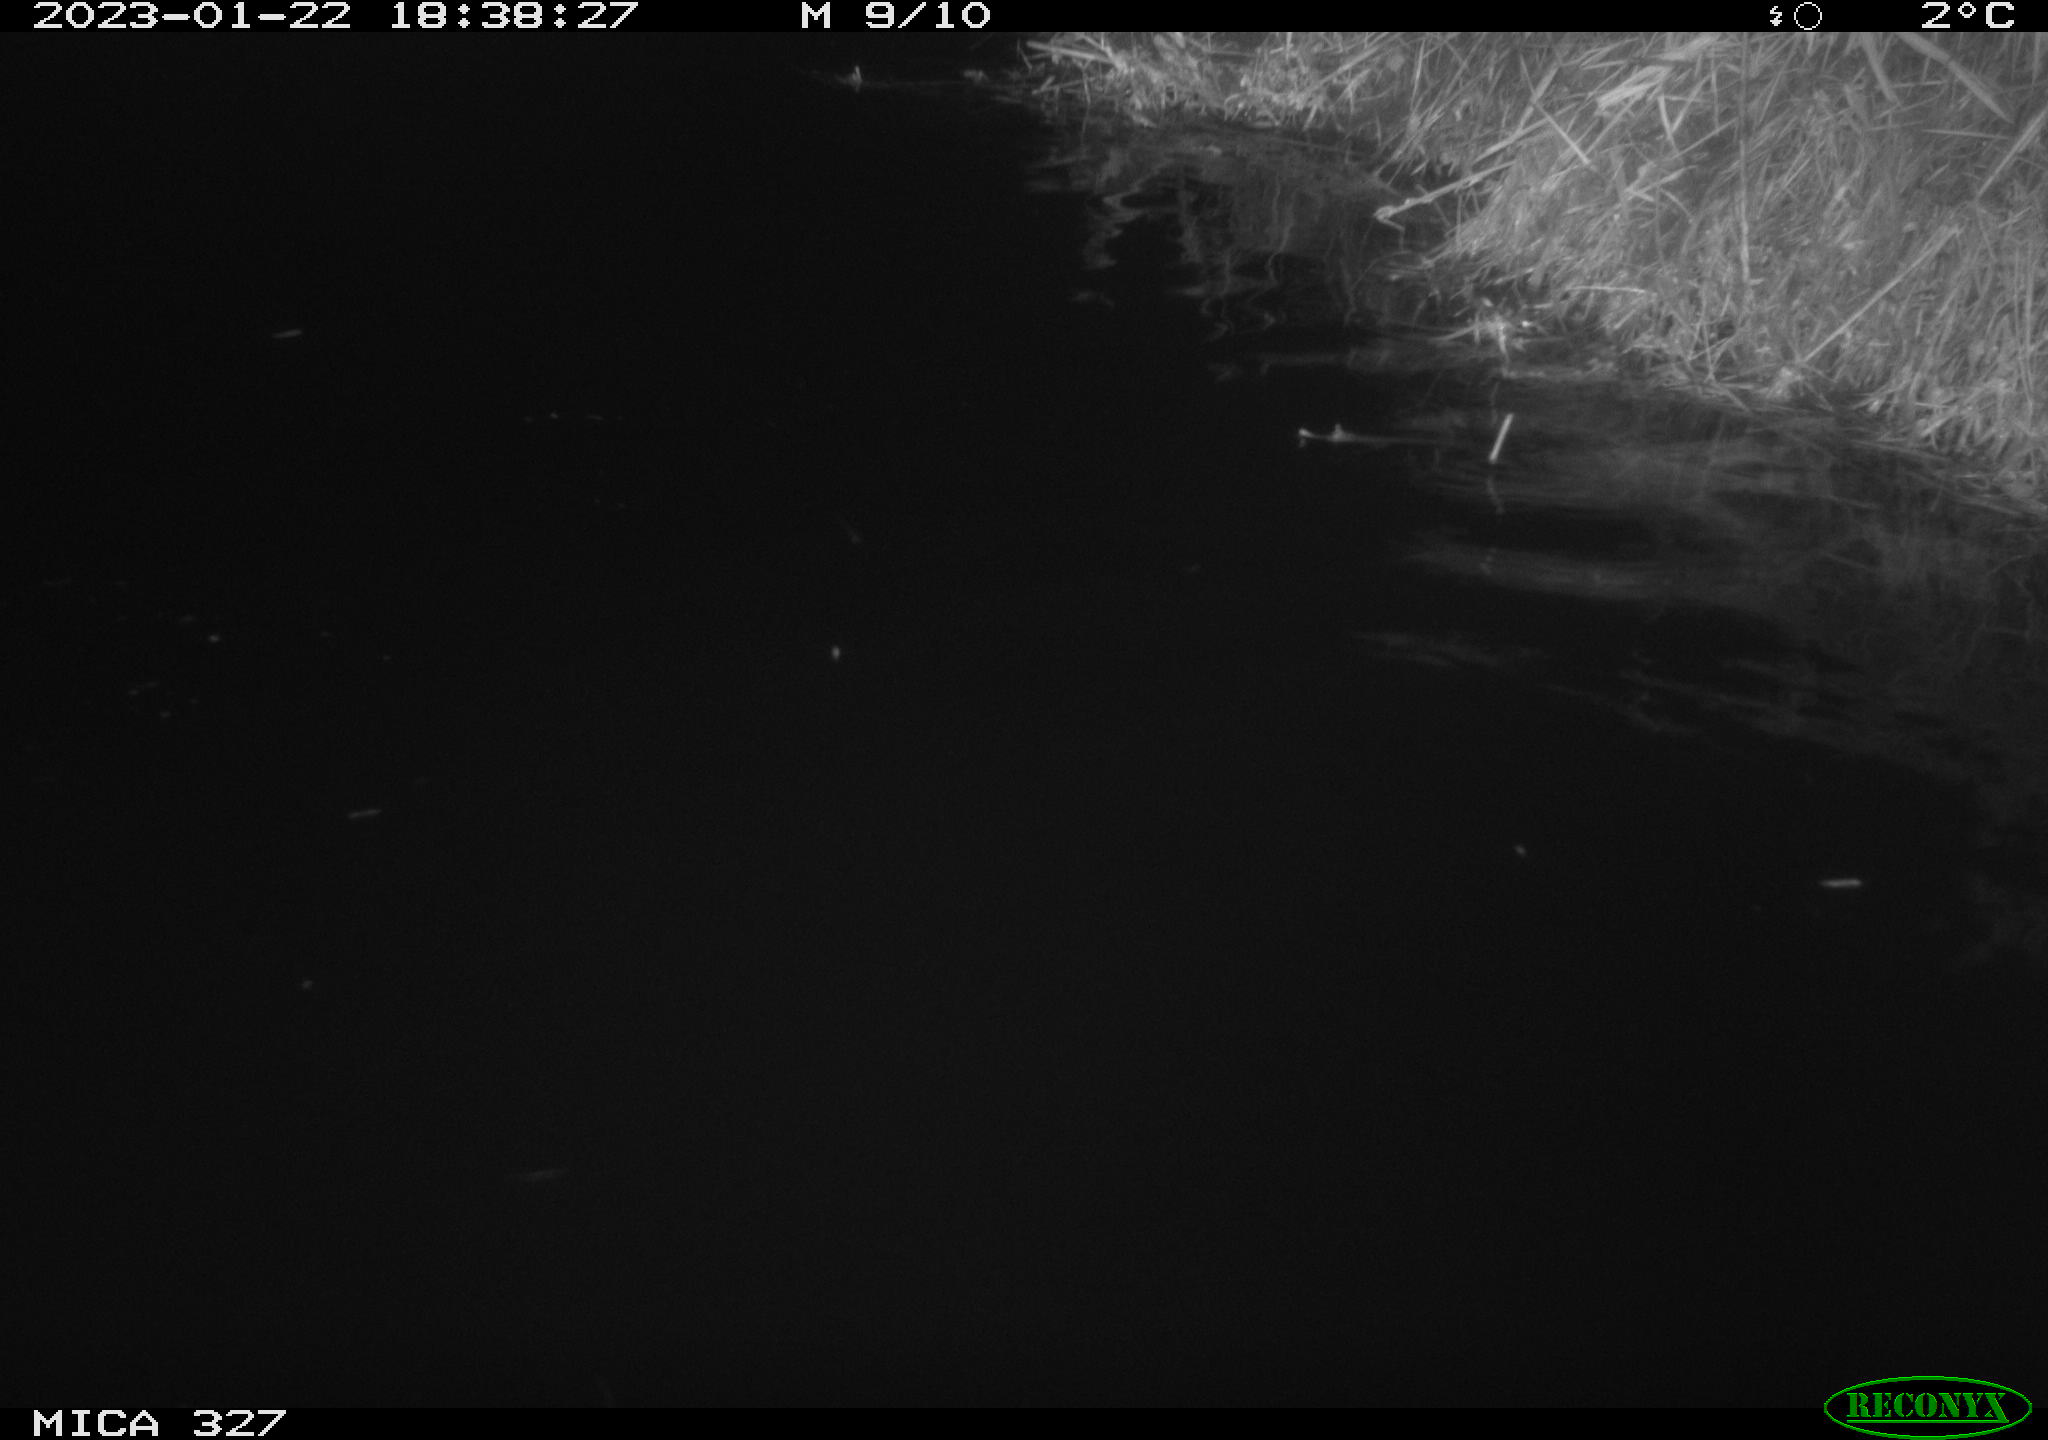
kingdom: Animalia
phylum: Chordata
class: Mammalia
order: Rodentia
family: Cricetidae
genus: Ondatra
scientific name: Ondatra zibethicus
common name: Muskrat
